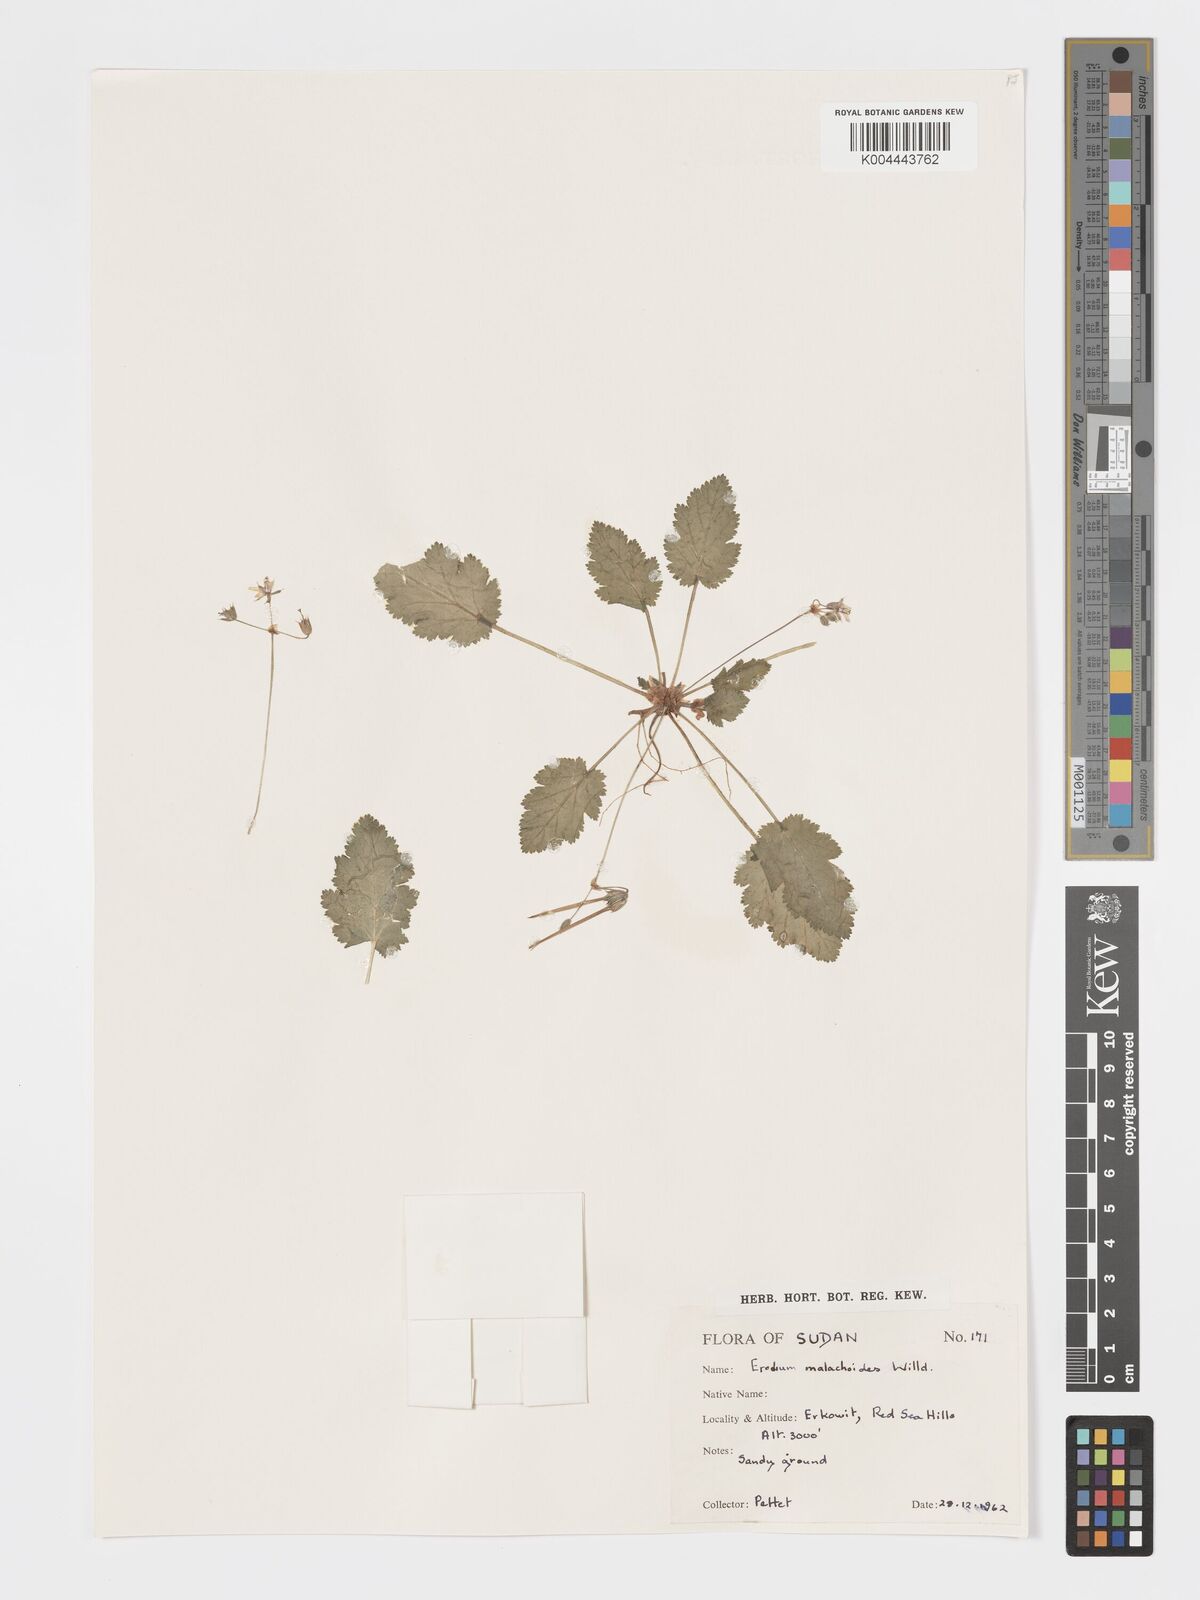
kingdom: Plantae
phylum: Tracheophyta
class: Magnoliopsida
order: Geraniales
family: Geraniaceae
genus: Erodium
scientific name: Erodium malacoides
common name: Soft stork's-bill
